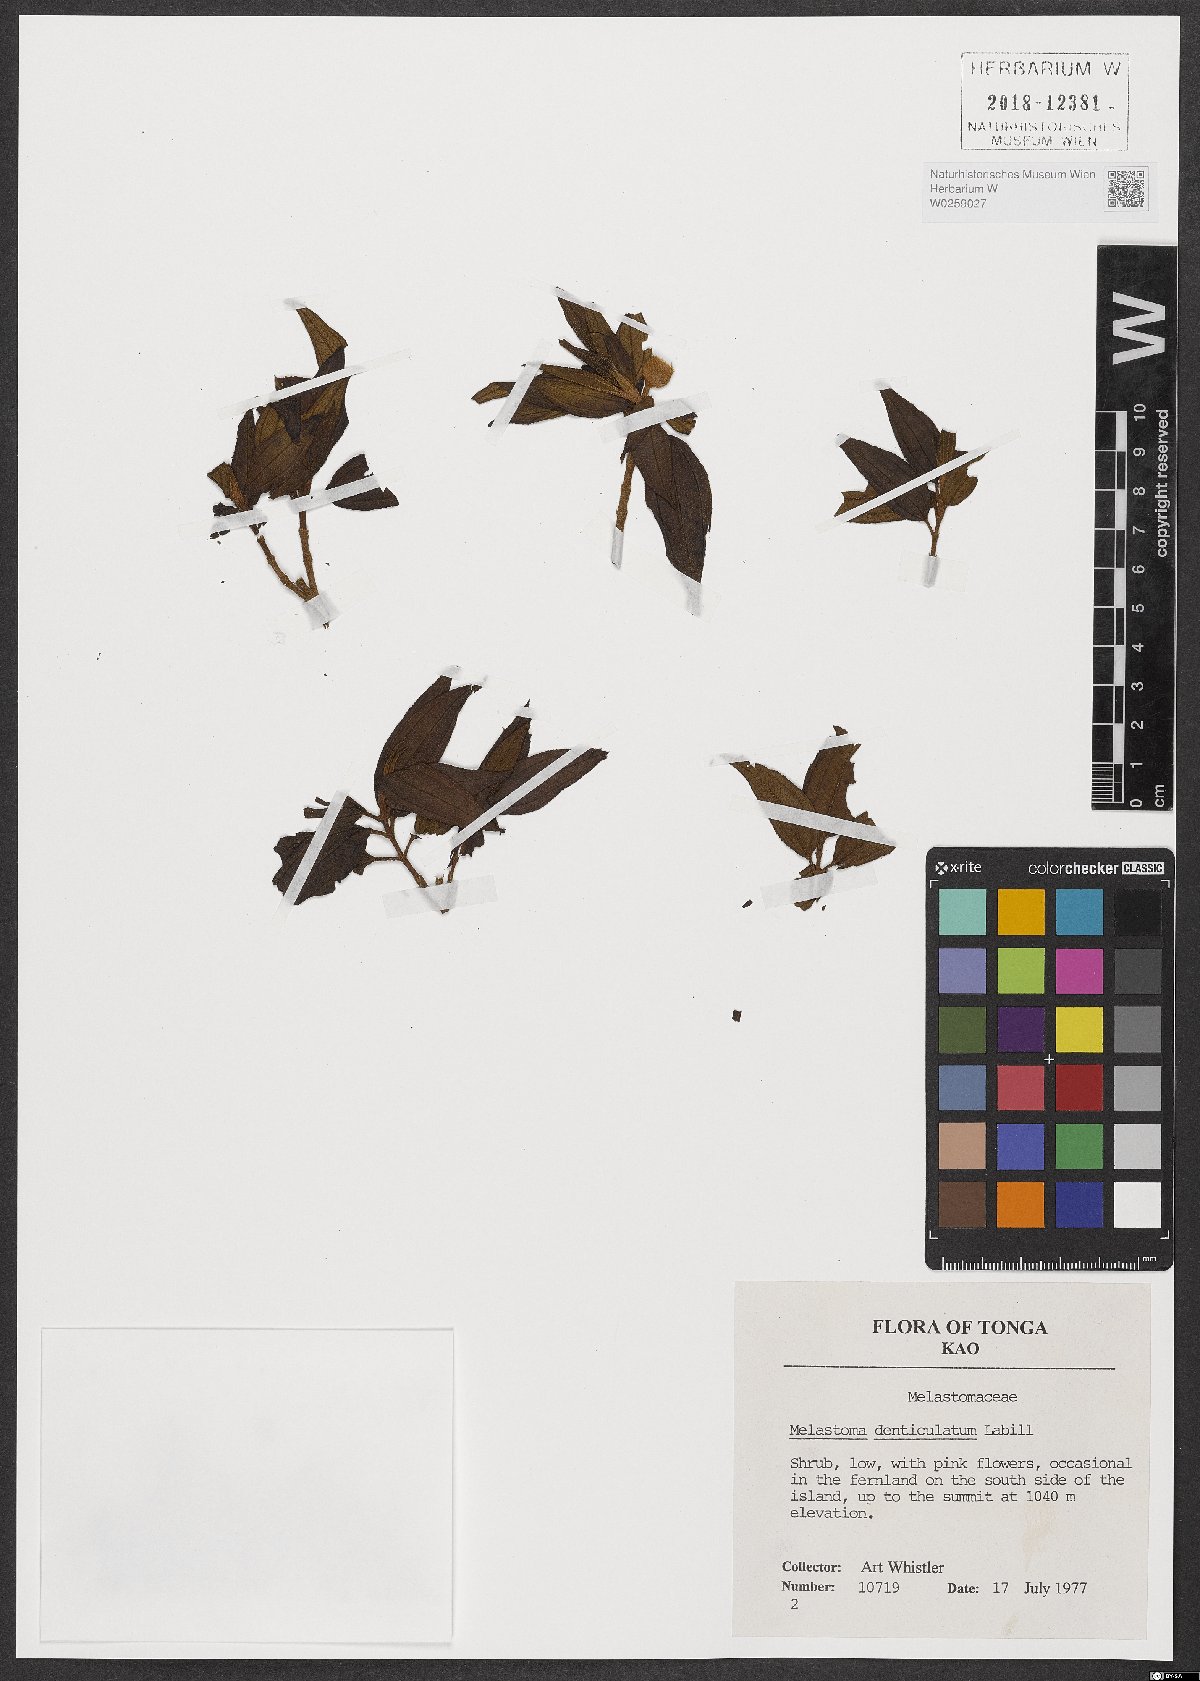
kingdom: Plantae
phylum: Tracheophyta
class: Magnoliopsida
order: Myrtales
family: Melastomataceae
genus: Melastoma
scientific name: Melastoma denticulatum
